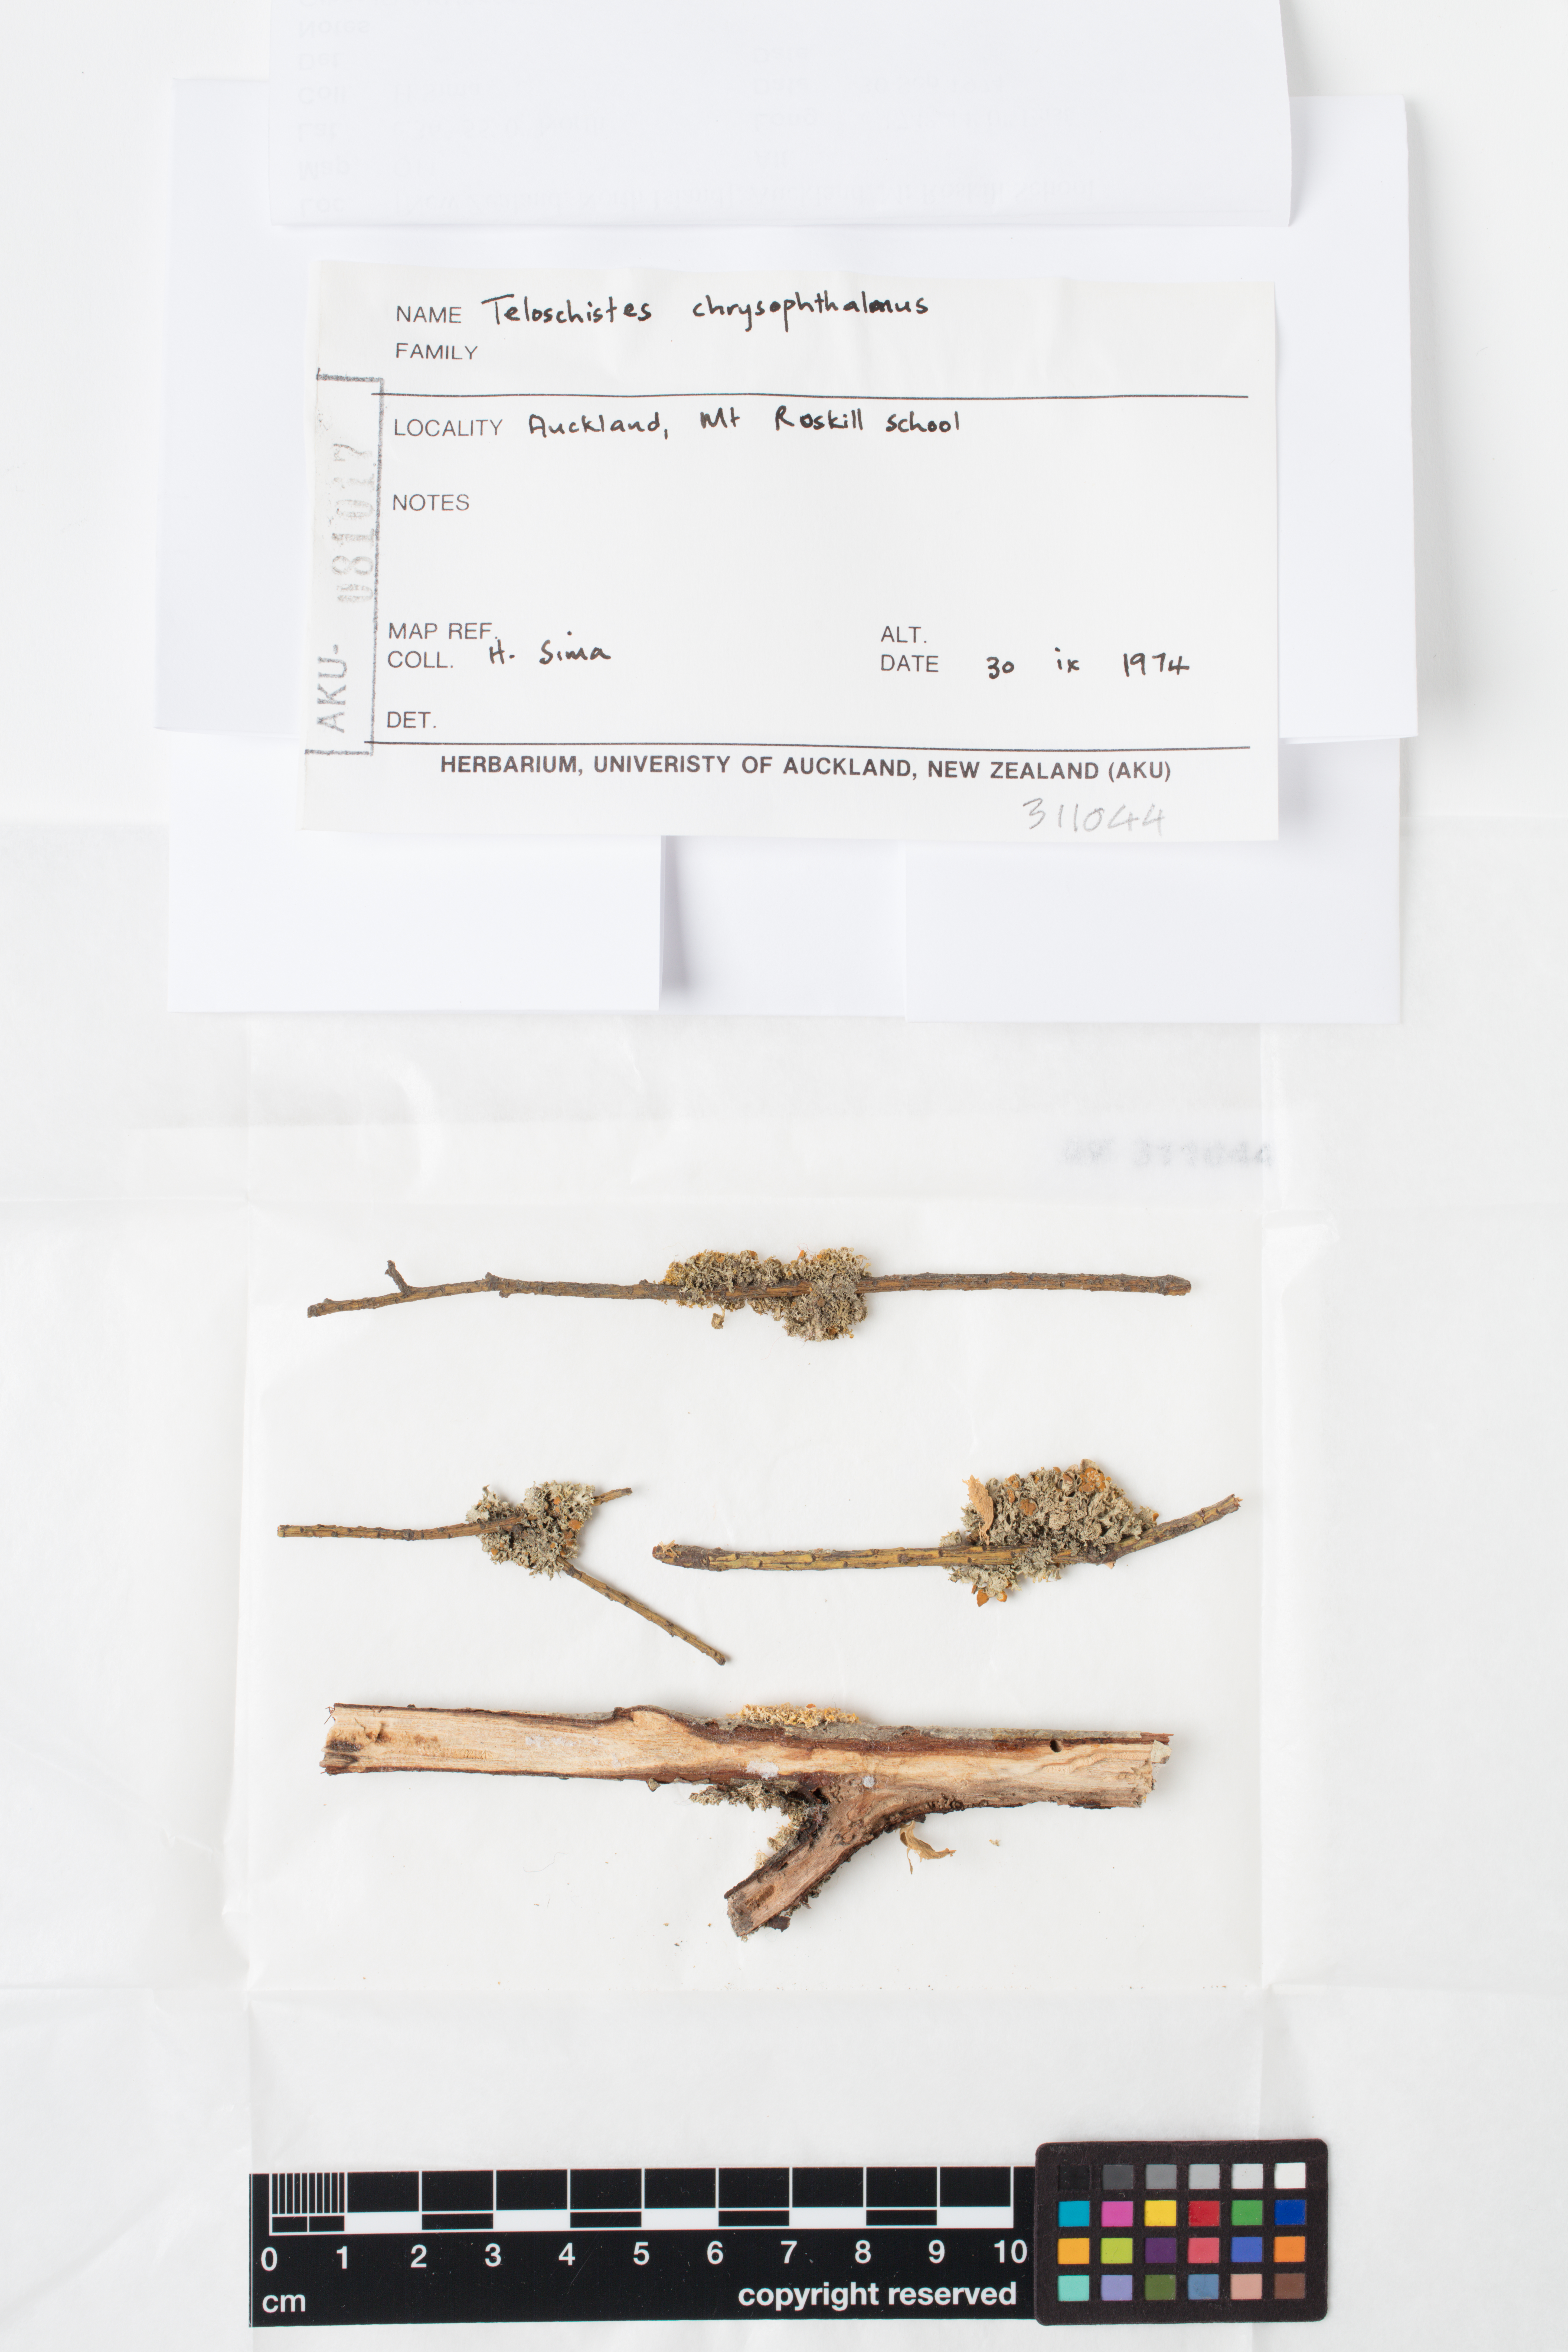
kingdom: Fungi
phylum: Ascomycota
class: Lecanoromycetes
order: Teloschistales
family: Teloschistaceae
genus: Niorma
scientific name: Niorma chrysophthalma
